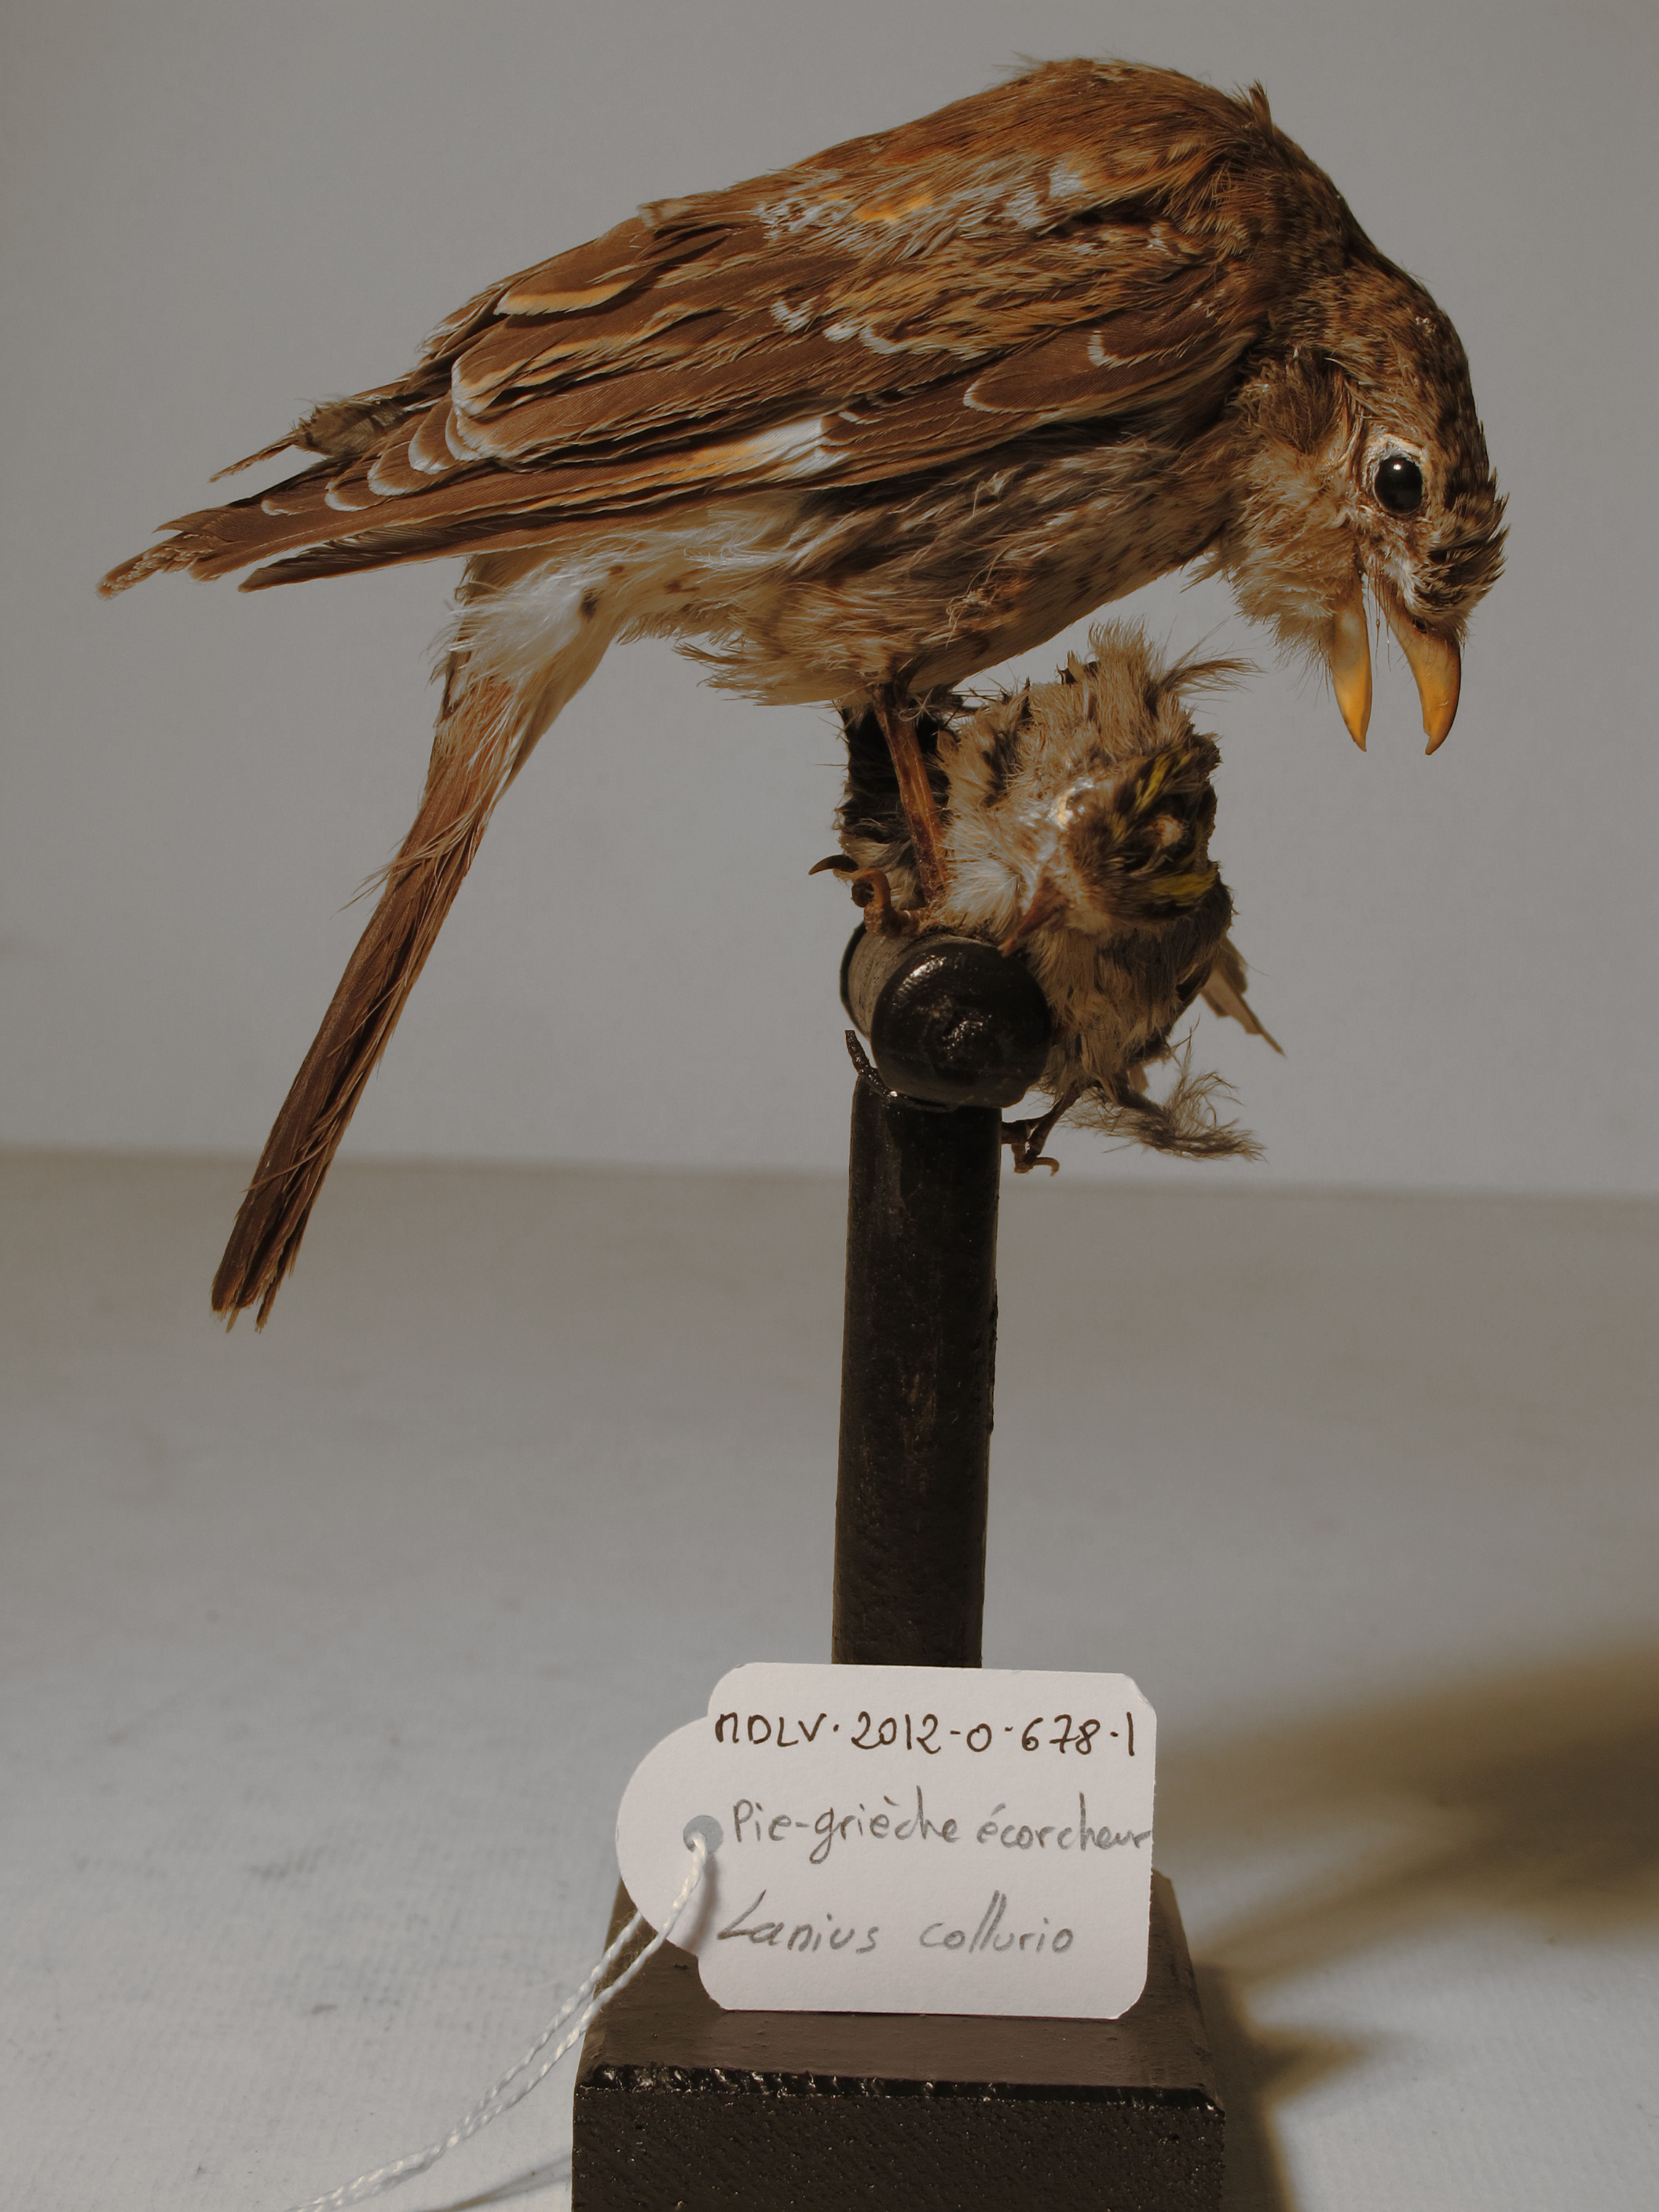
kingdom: Animalia
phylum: Chordata
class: Aves
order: Passeriformes
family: Laniidae
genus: Lanius
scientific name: Lanius collurio
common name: Red-backed Shrike
